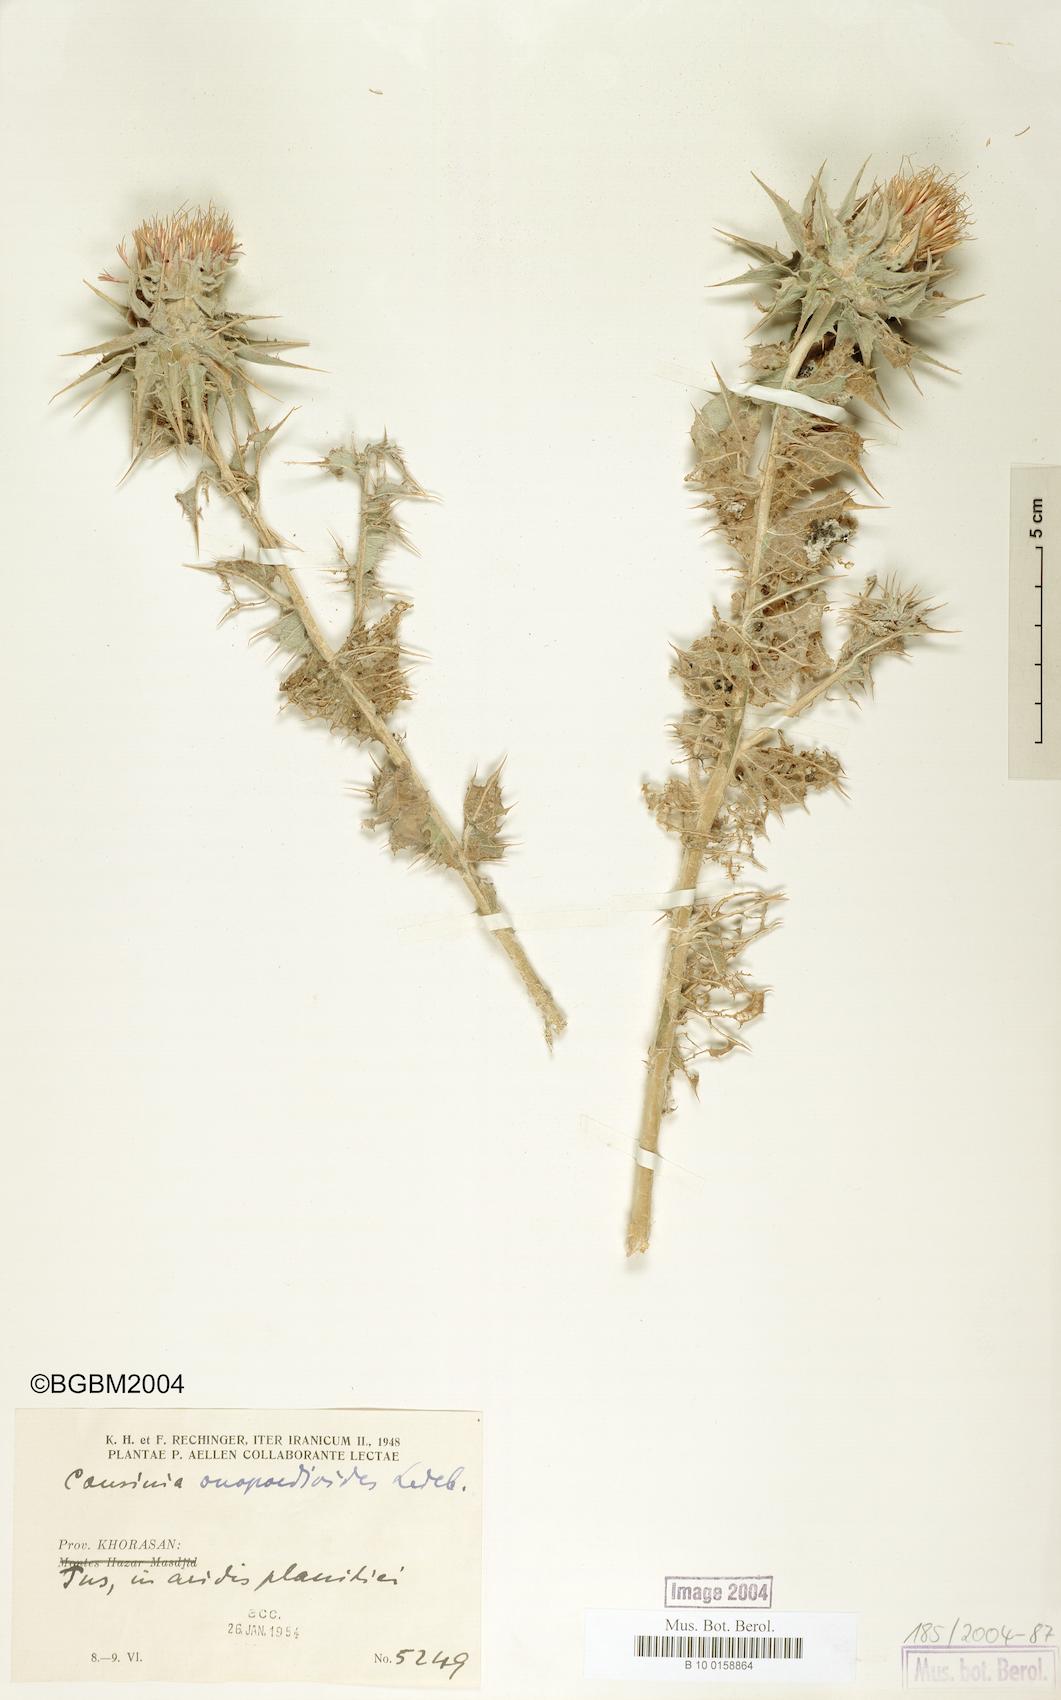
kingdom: Plantae
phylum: Tracheophyta
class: Magnoliopsida
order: Asterales
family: Asteraceae
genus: Cousinia
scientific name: Cousinia onopordioides
